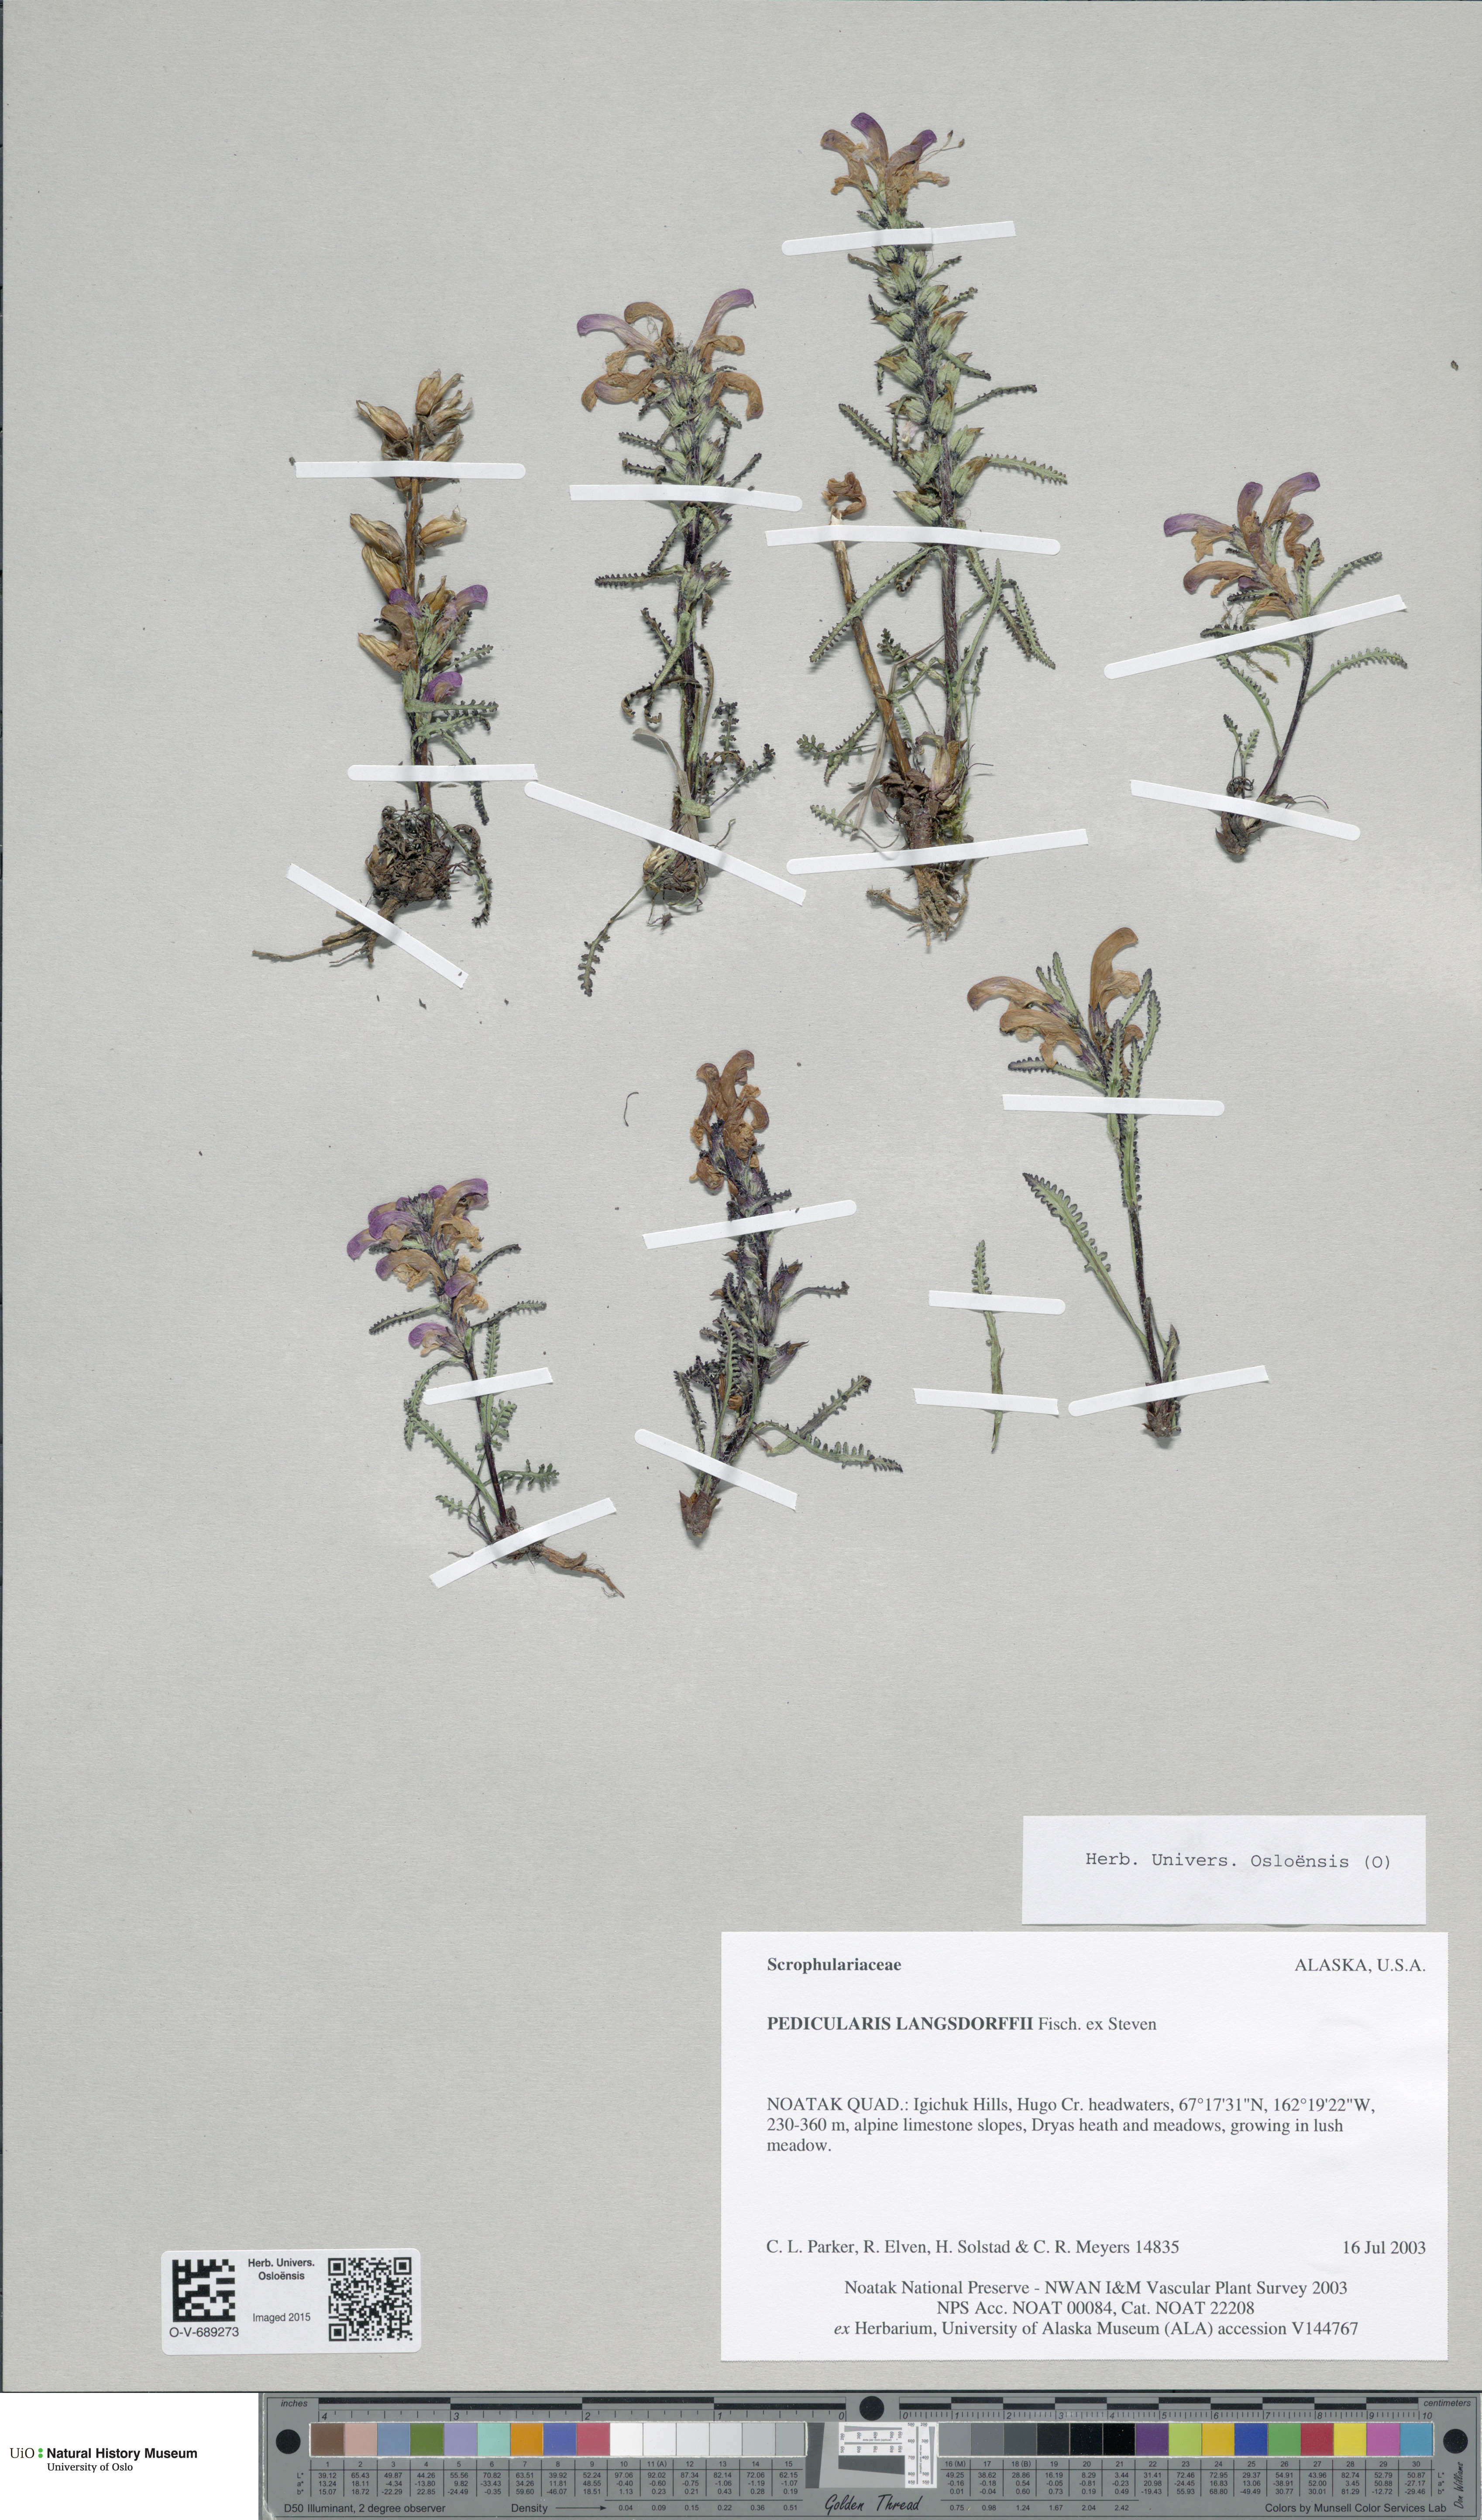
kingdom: Plantae
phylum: Tracheophyta
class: Magnoliopsida
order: Lamiales
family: Orobanchaceae
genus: Pedicularis
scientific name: Pedicularis langsdorffii
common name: Langsdorff's lousewort
